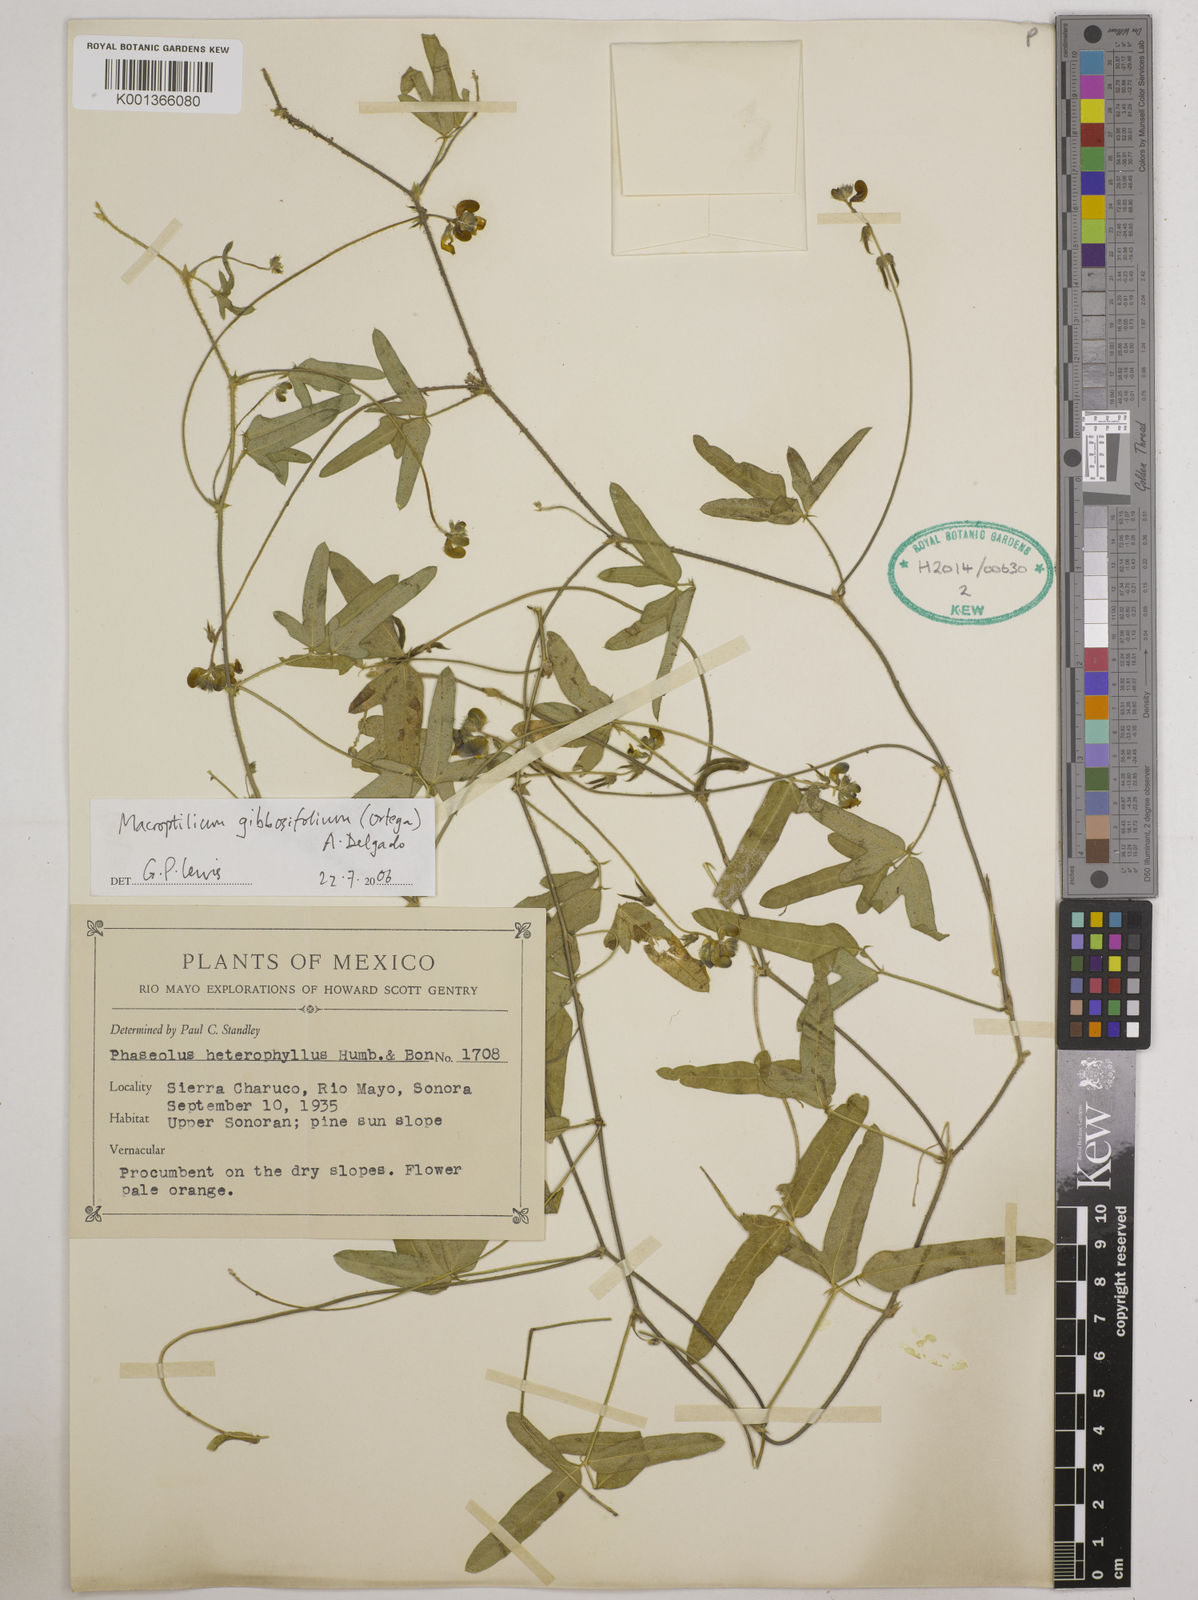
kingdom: Plantae
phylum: Tracheophyta
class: Magnoliopsida
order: Fabales
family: Fabaceae
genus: Macroptilium
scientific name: Macroptilium gibbosifolium
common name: Variableleaf bushbean
